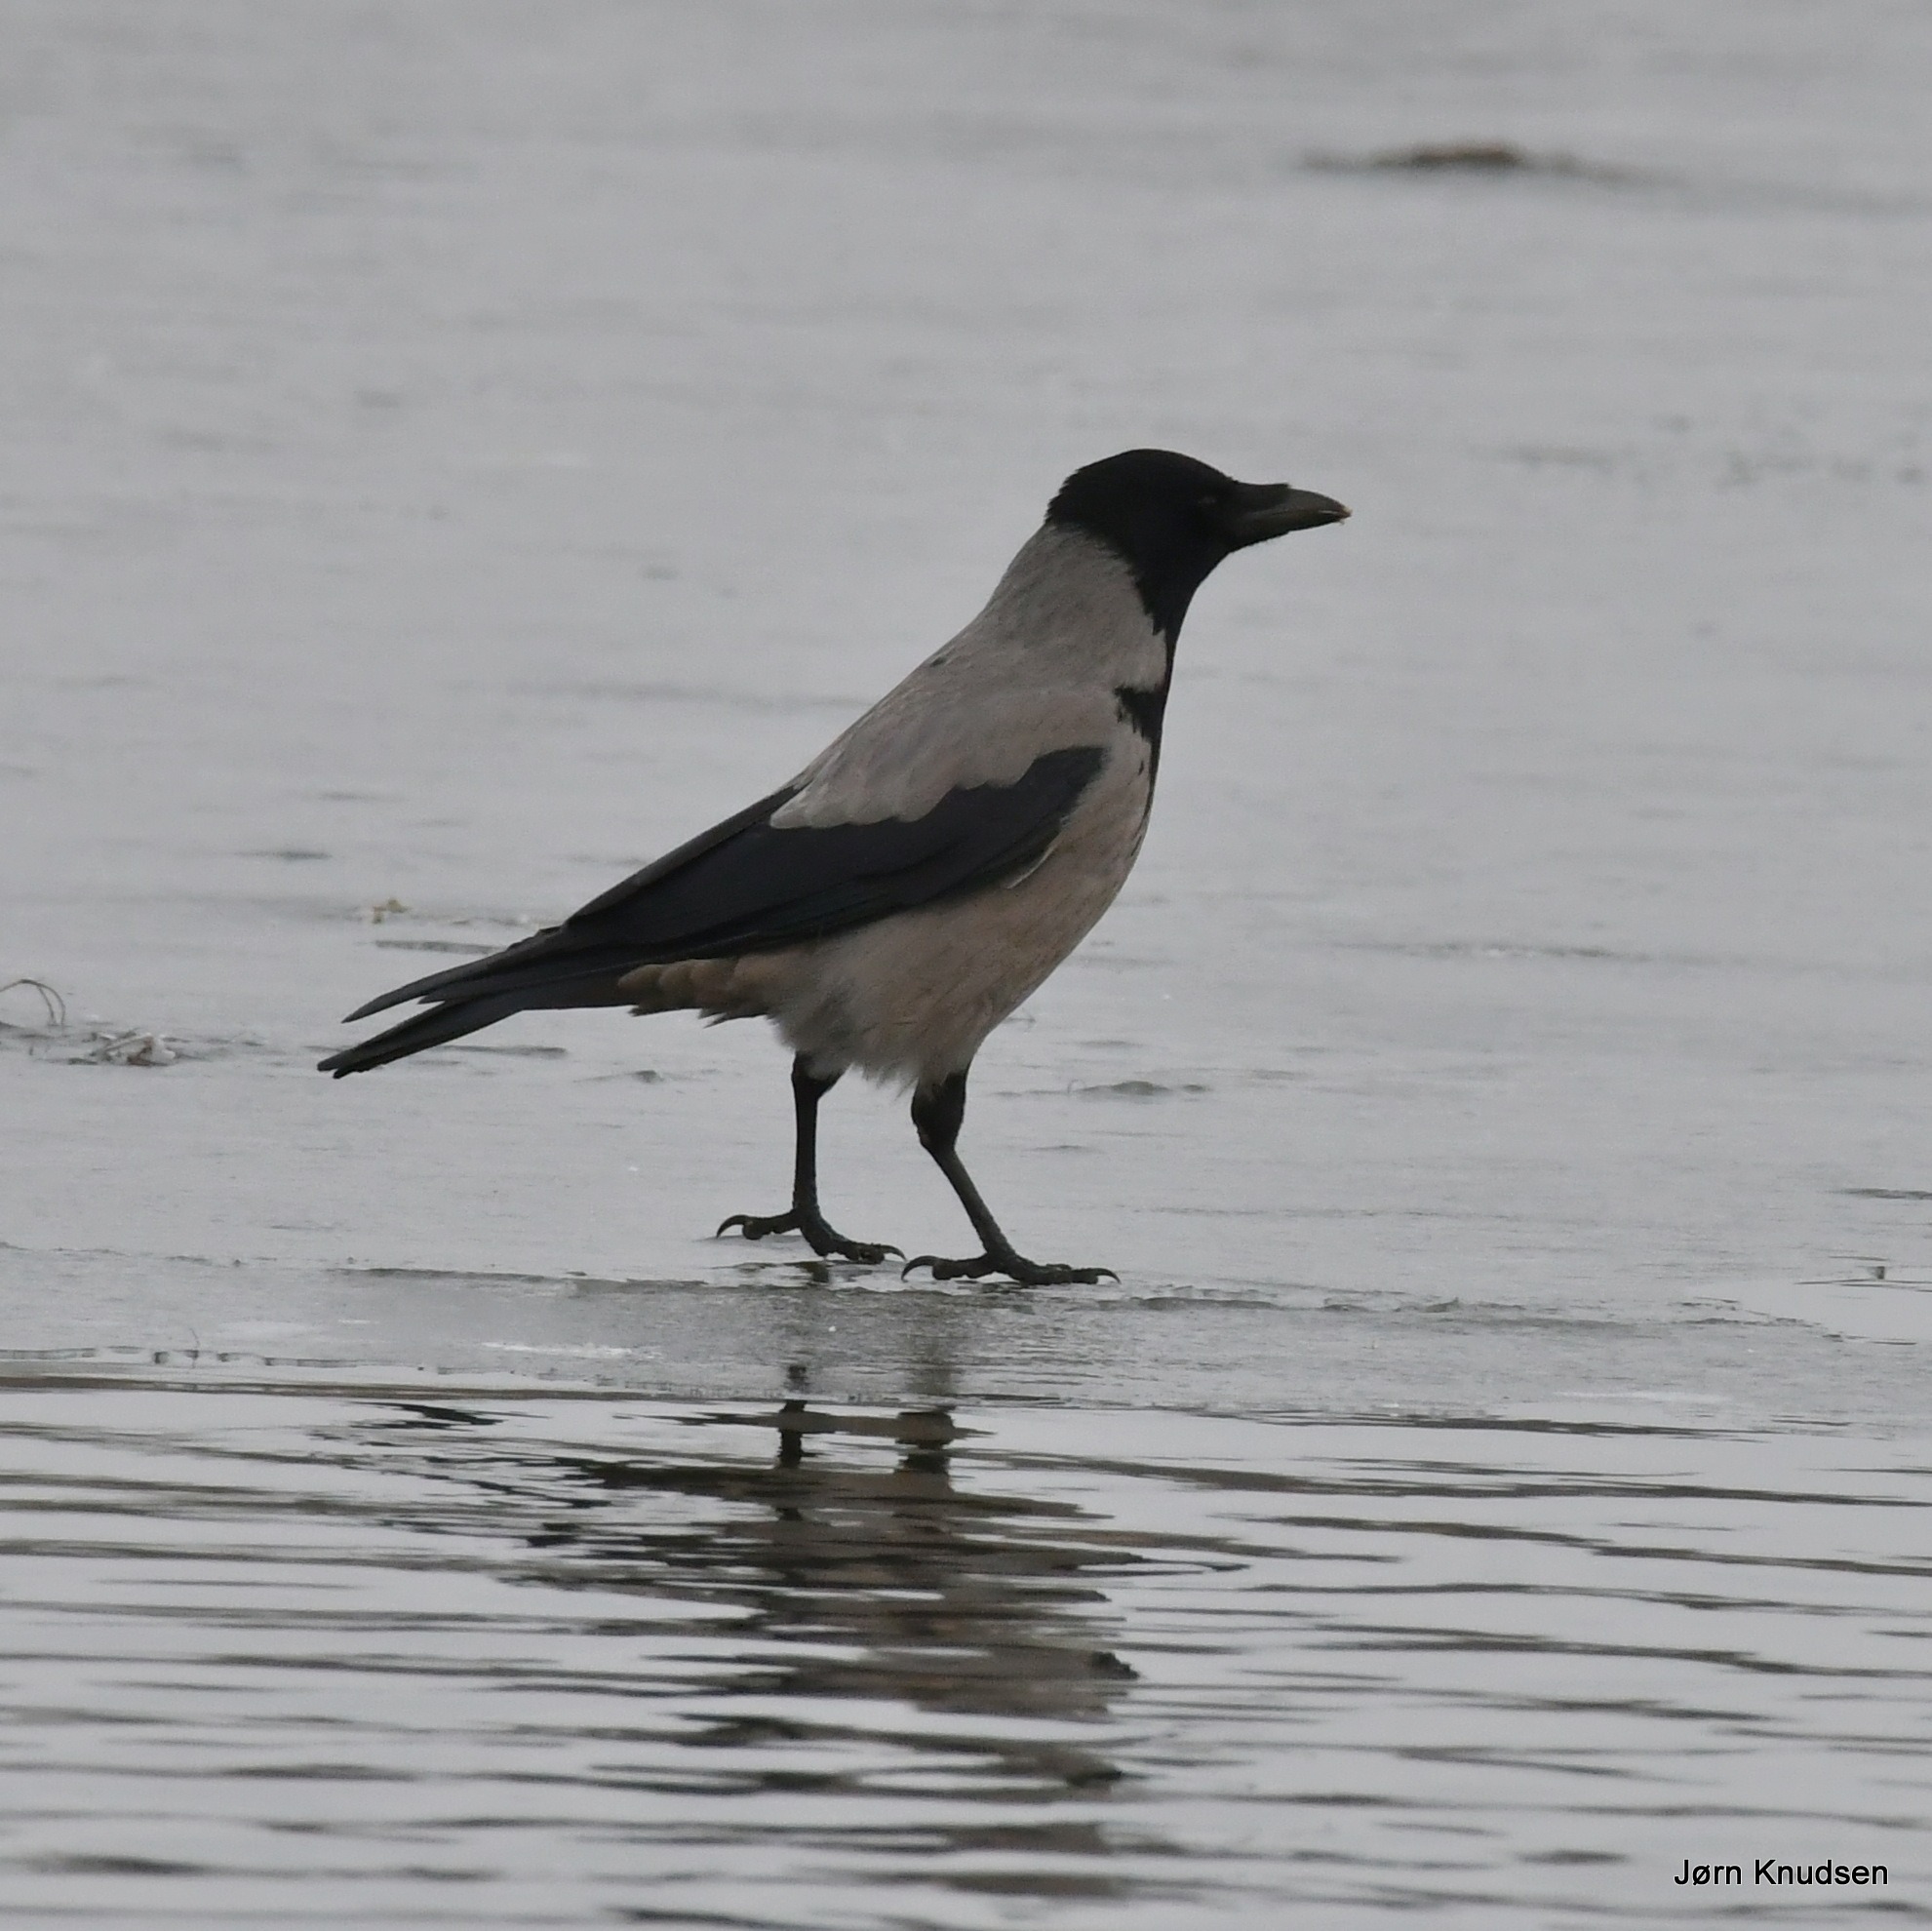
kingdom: Animalia
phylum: Chordata
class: Aves
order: Passeriformes
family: Corvidae
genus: Corvus
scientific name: Corvus cornix
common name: Gråkrage
